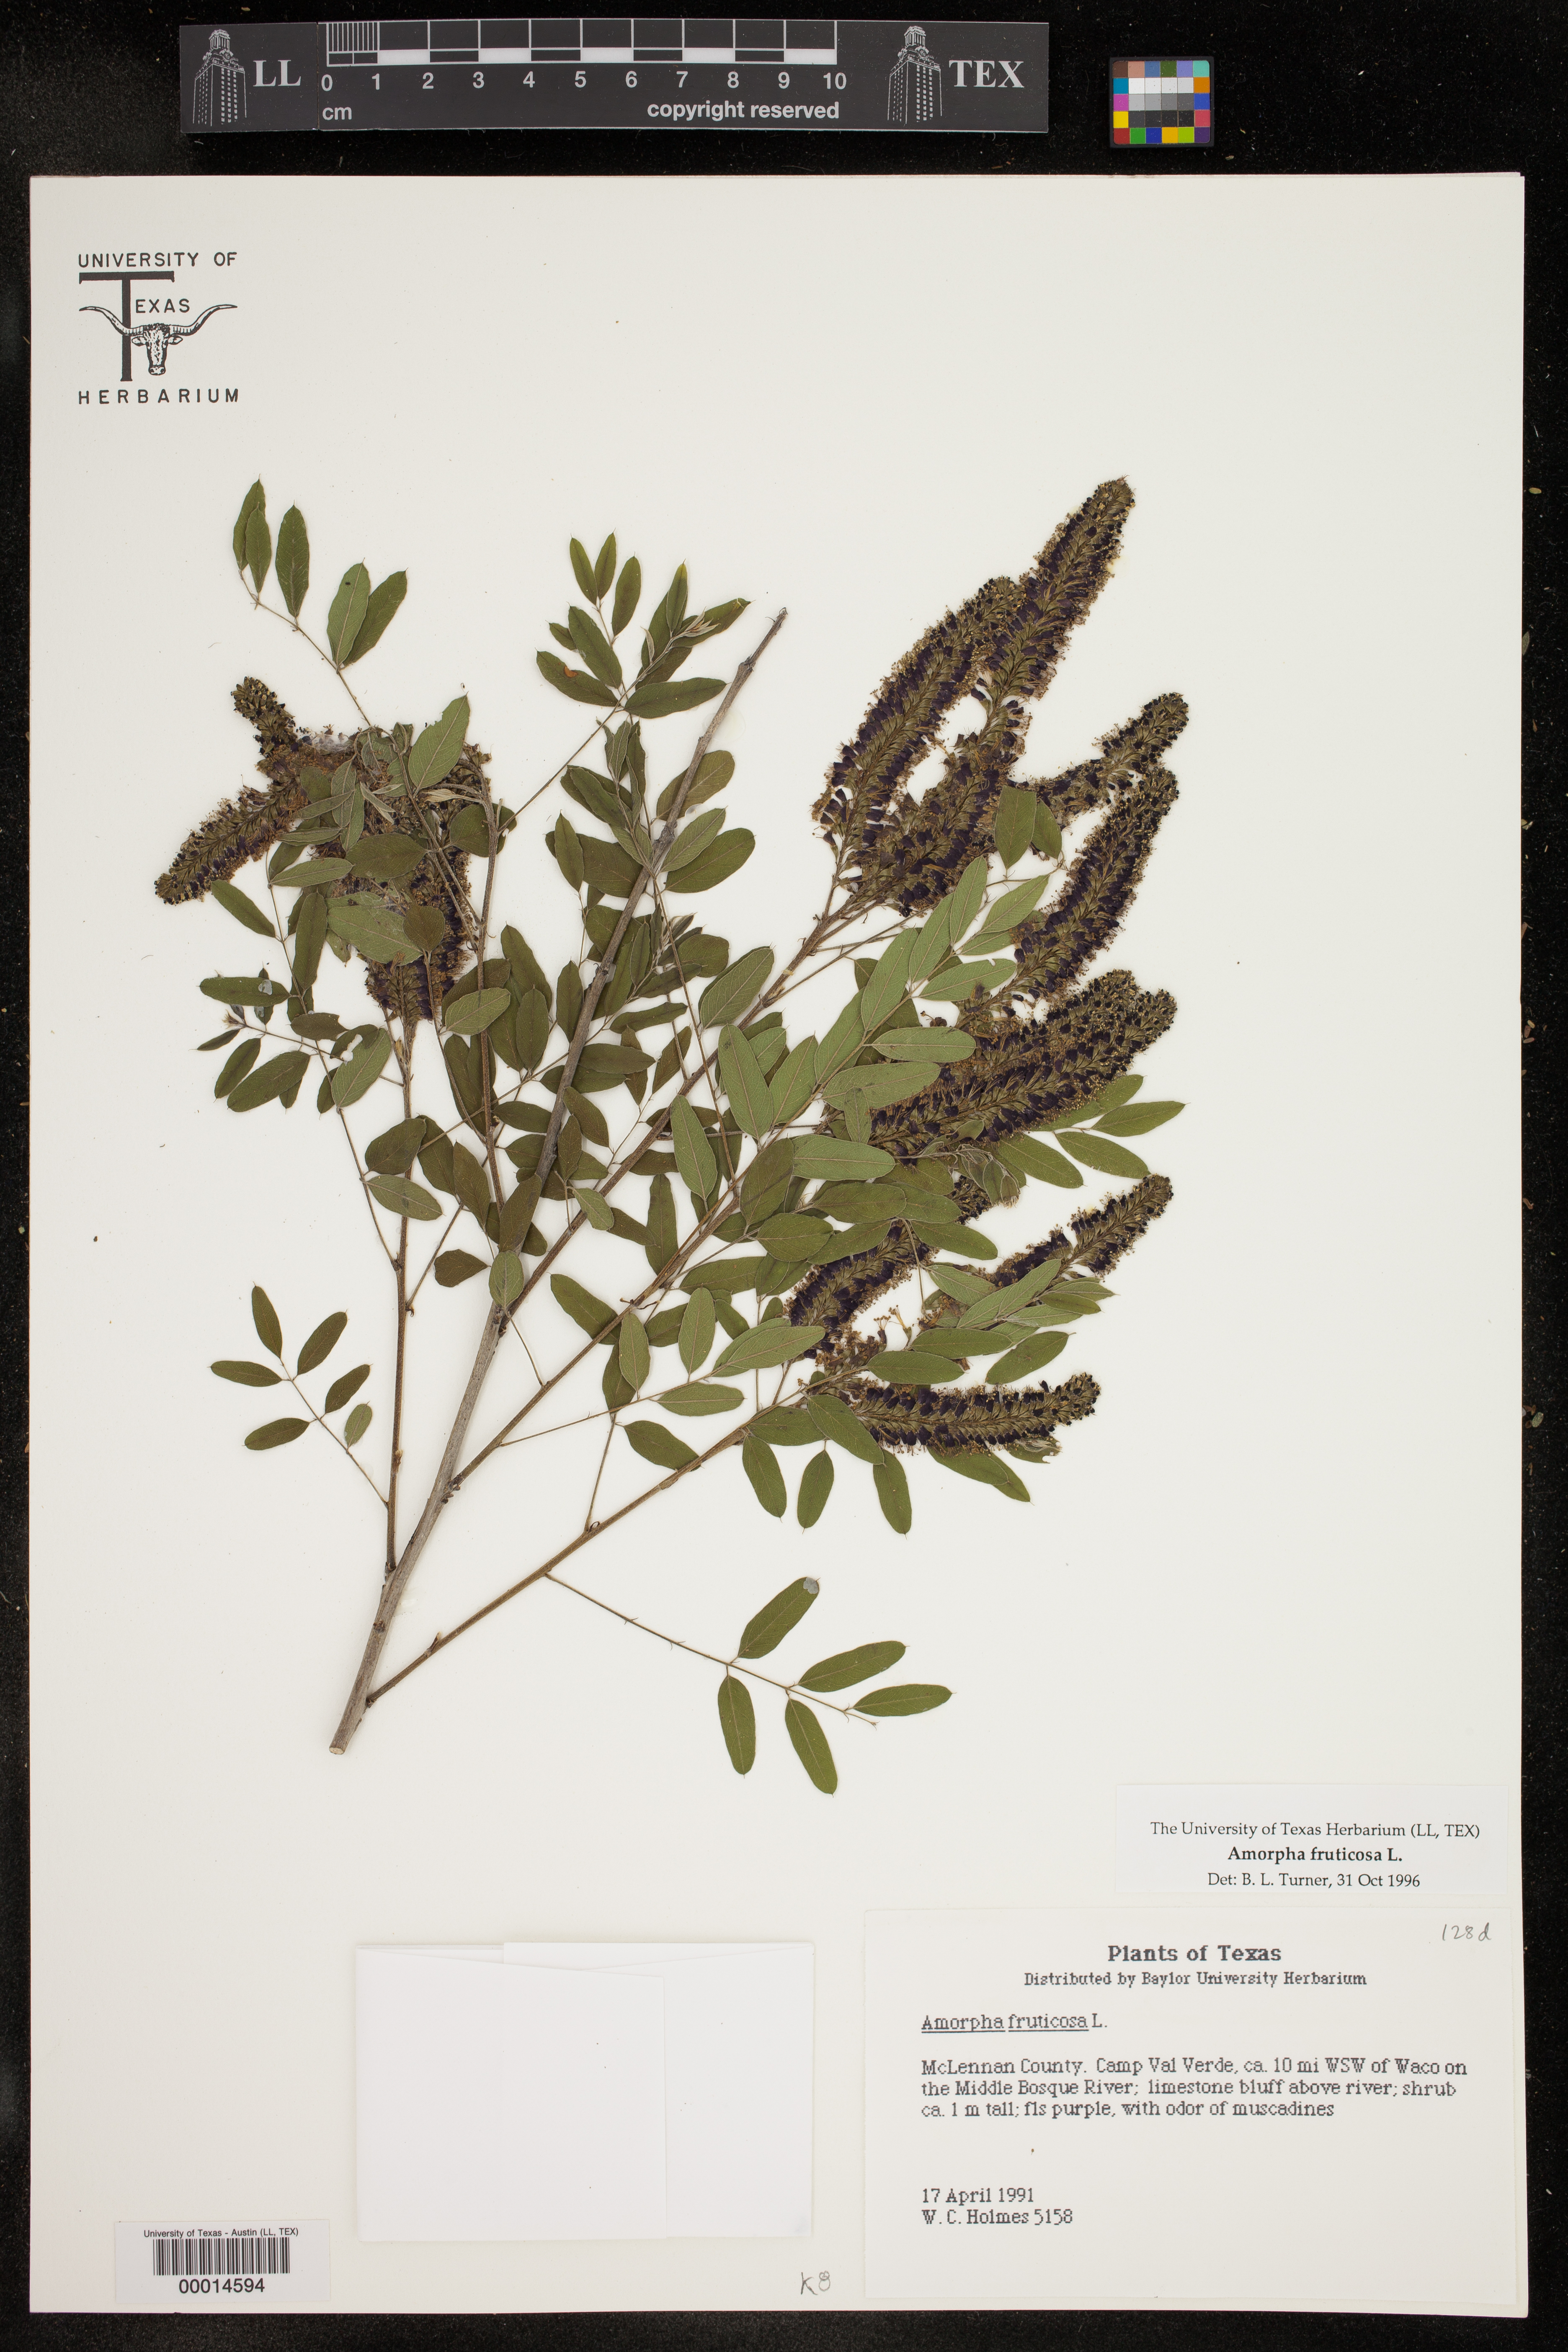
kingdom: Plantae
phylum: Tracheophyta
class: Magnoliopsida
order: Fabales
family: Fabaceae
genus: Amorpha
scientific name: Amorpha fruticosa
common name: False indigo
